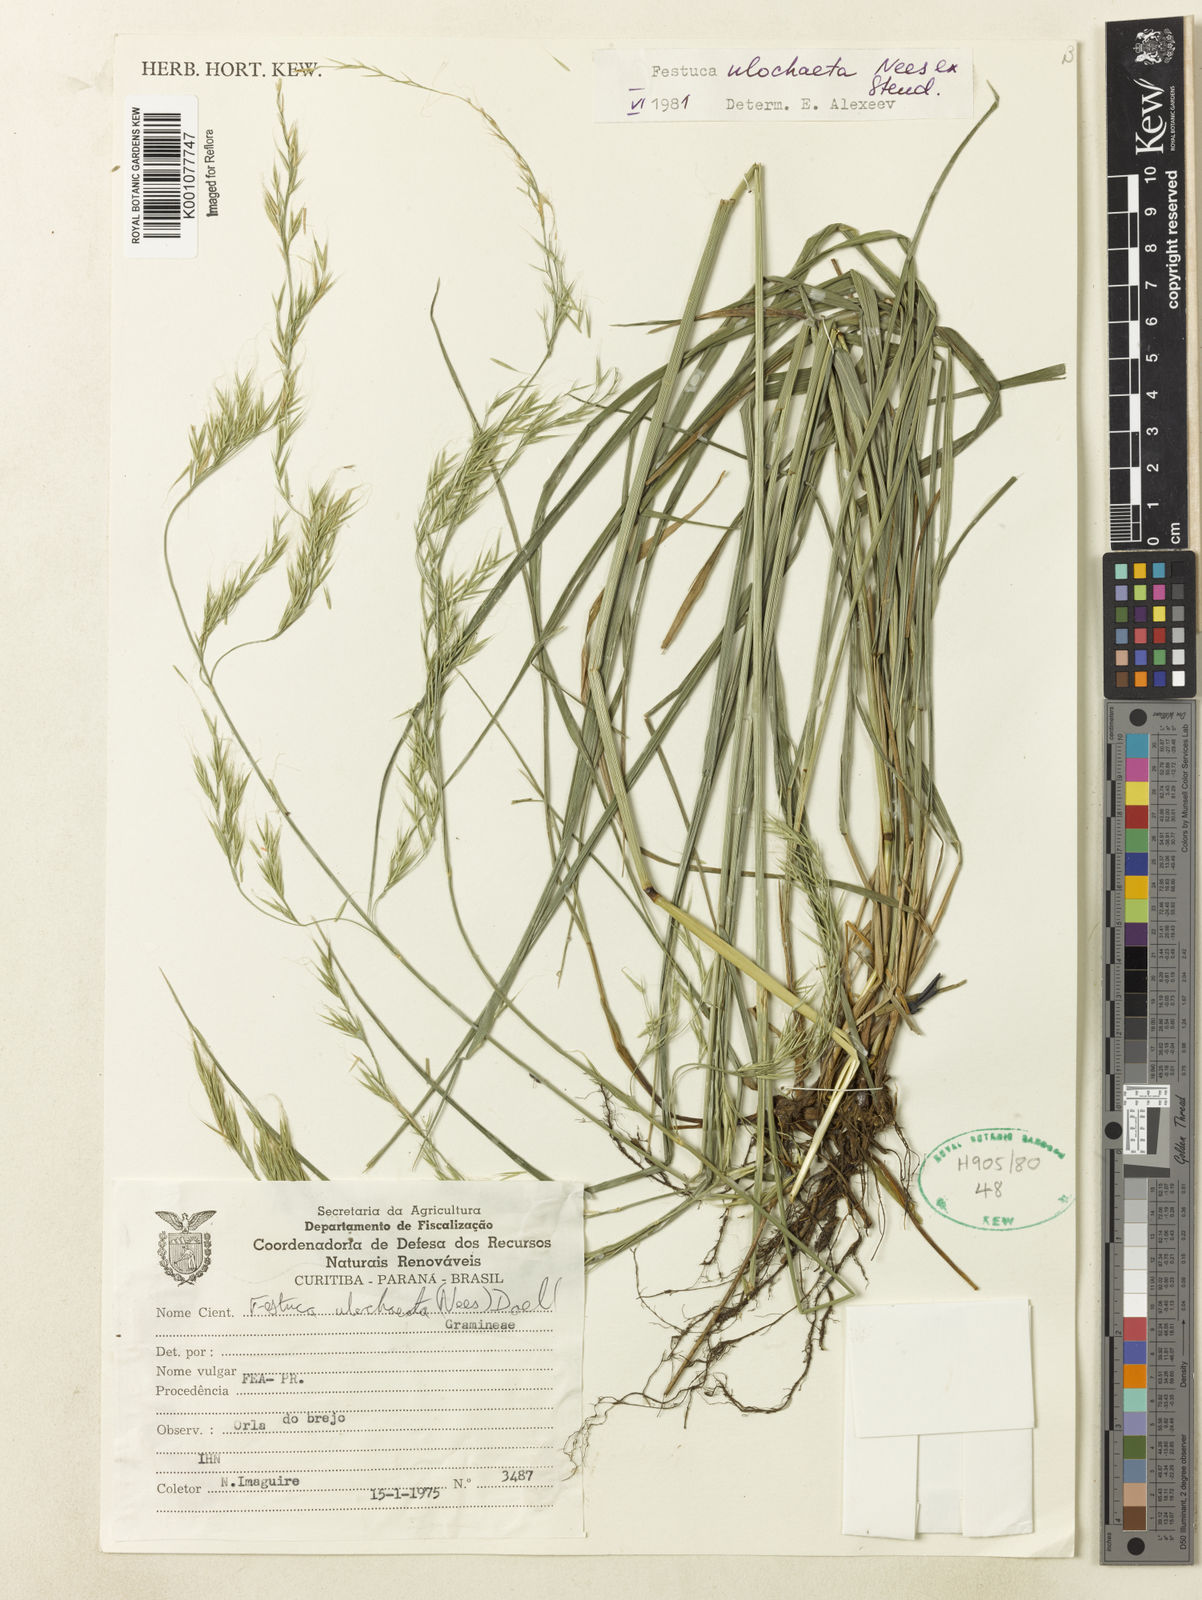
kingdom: Plantae
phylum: Tracheophyta
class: Liliopsida
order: Poales
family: Poaceae
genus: Festuca
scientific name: Festuca ulochaeta
